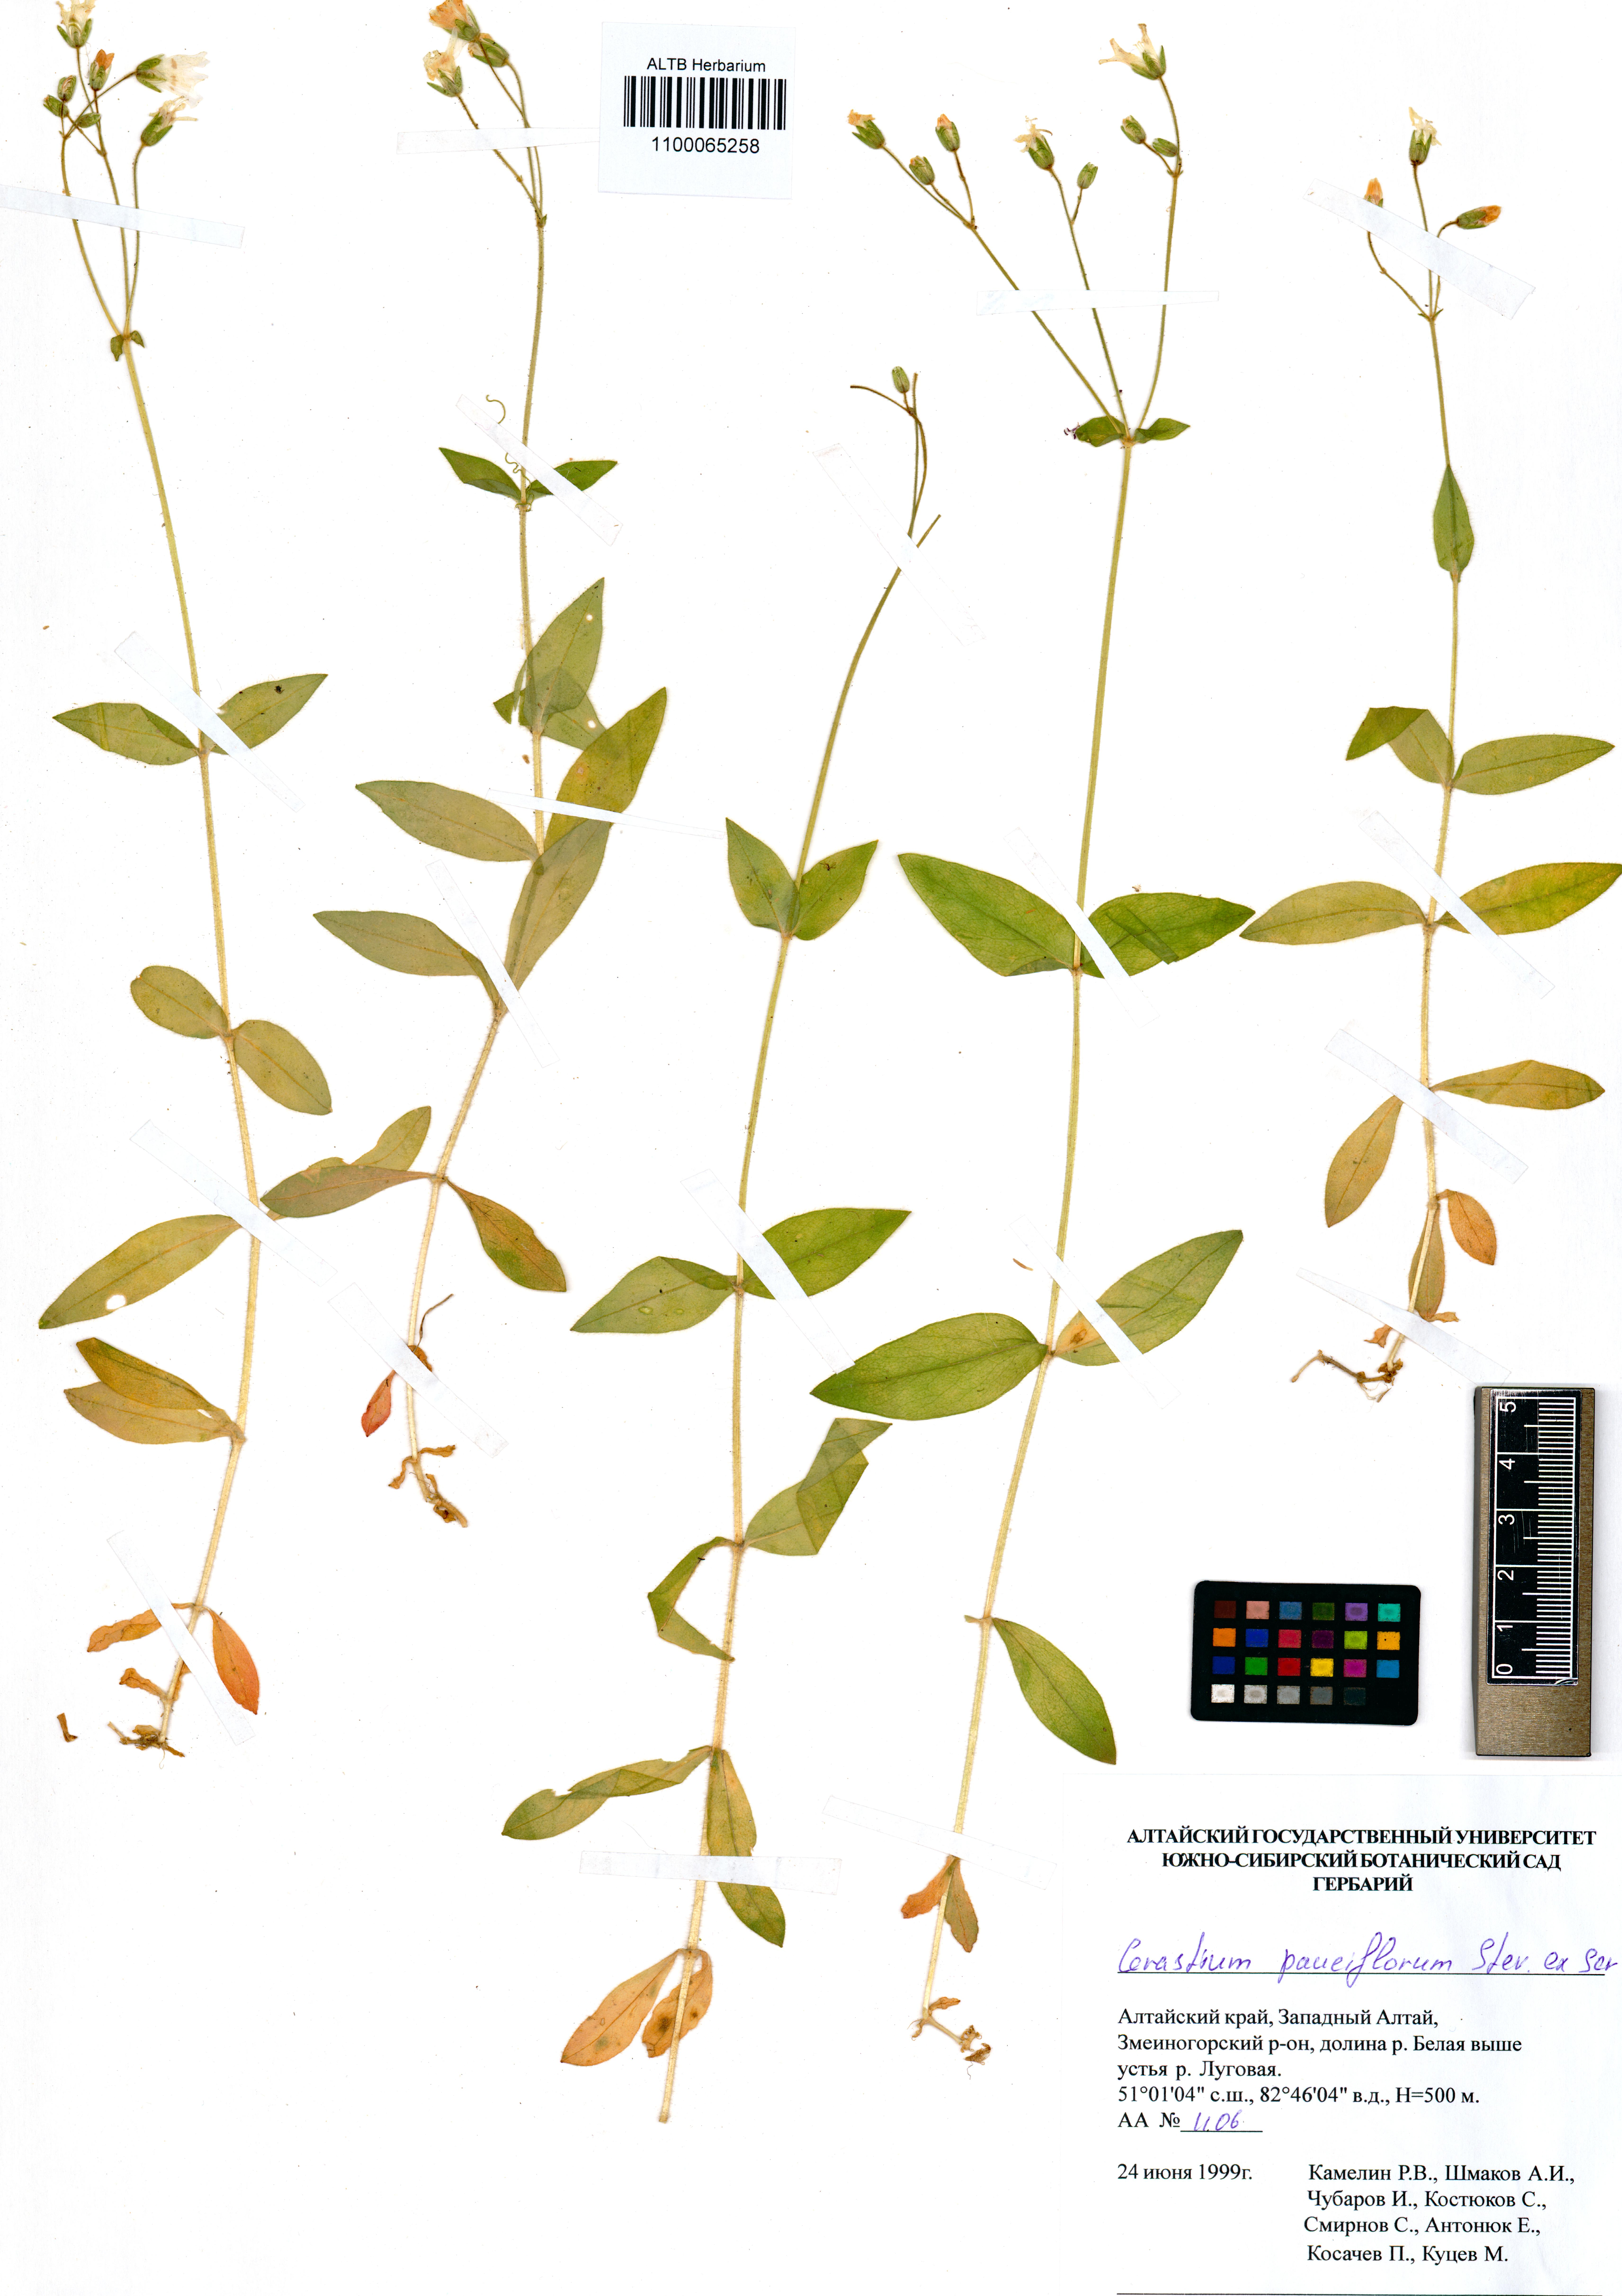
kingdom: Plantae
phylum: Tracheophyta
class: Magnoliopsida
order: Caryophyllales
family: Caryophyllaceae
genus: Cerastium
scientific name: Cerastium pauciflorum
